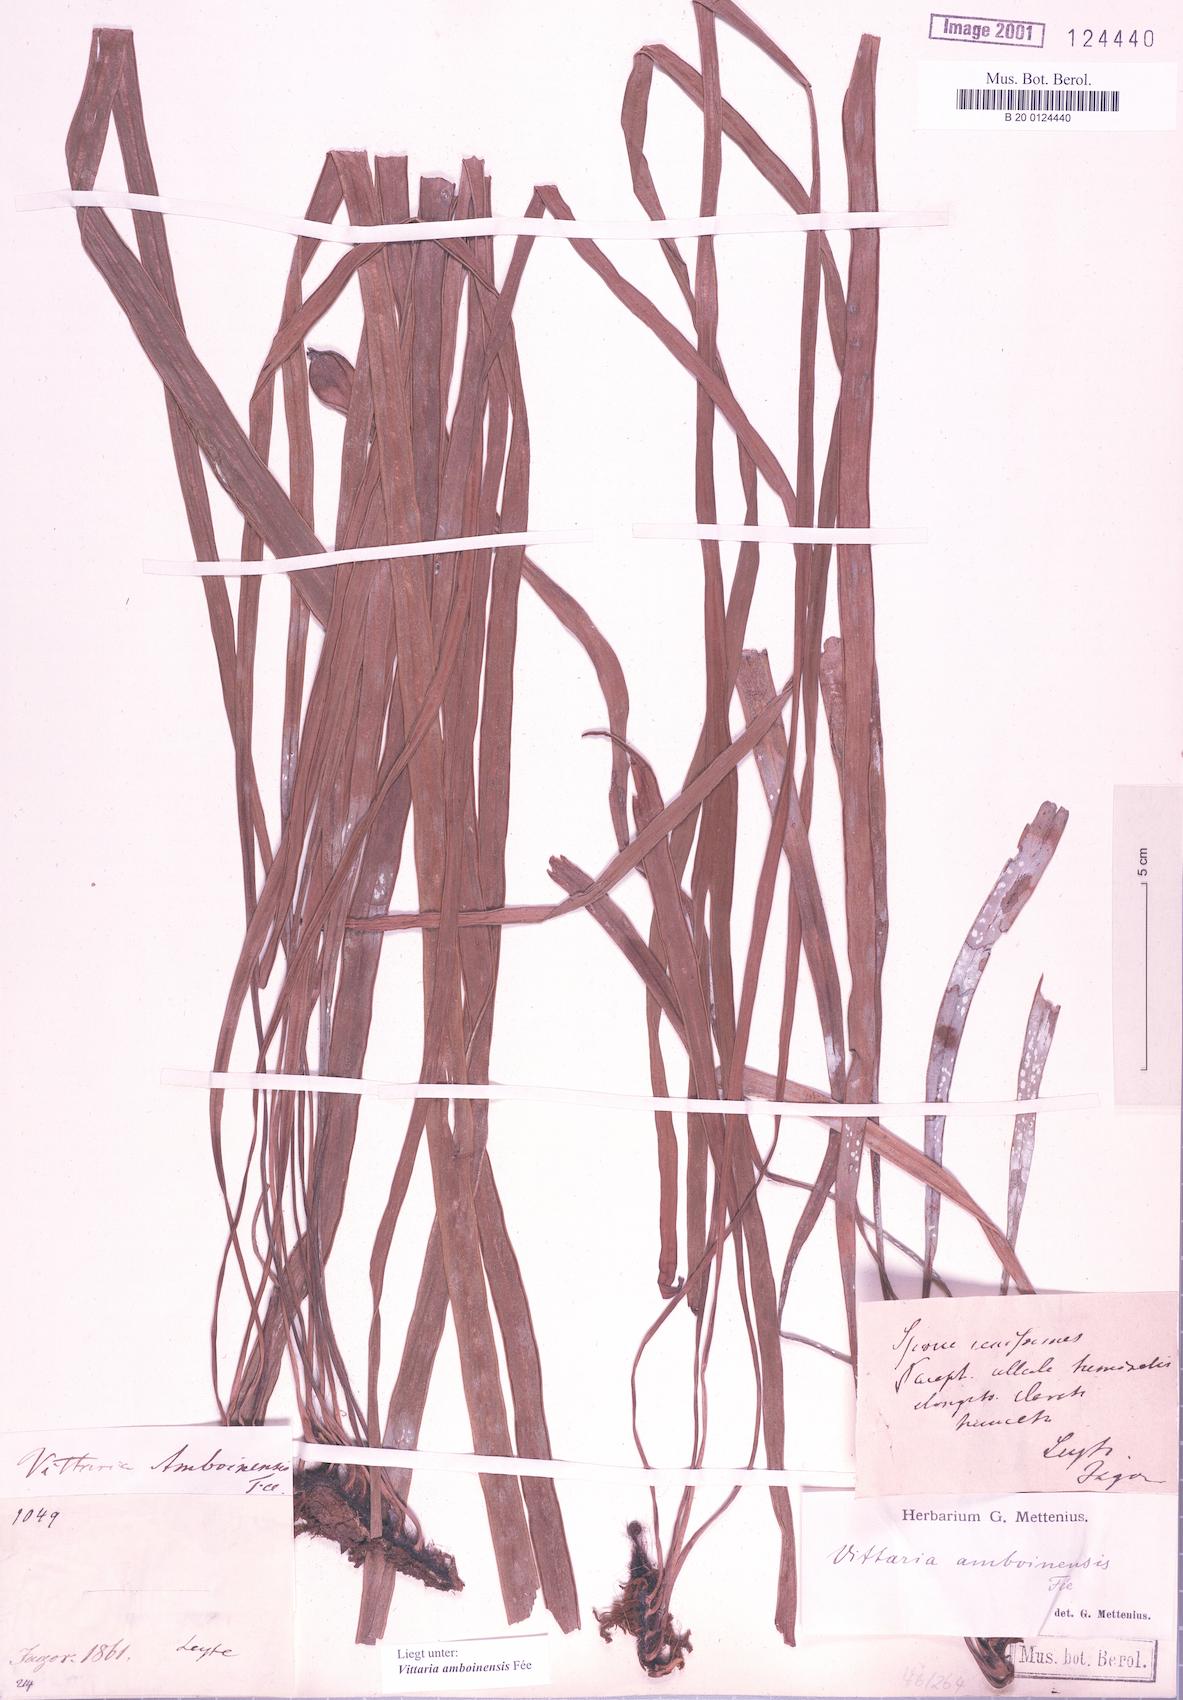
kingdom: Plantae
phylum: Tracheophyta
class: Polypodiopsida
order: Polypodiales
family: Pteridaceae
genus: Haplopteris
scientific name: Haplopteris amboinensis
